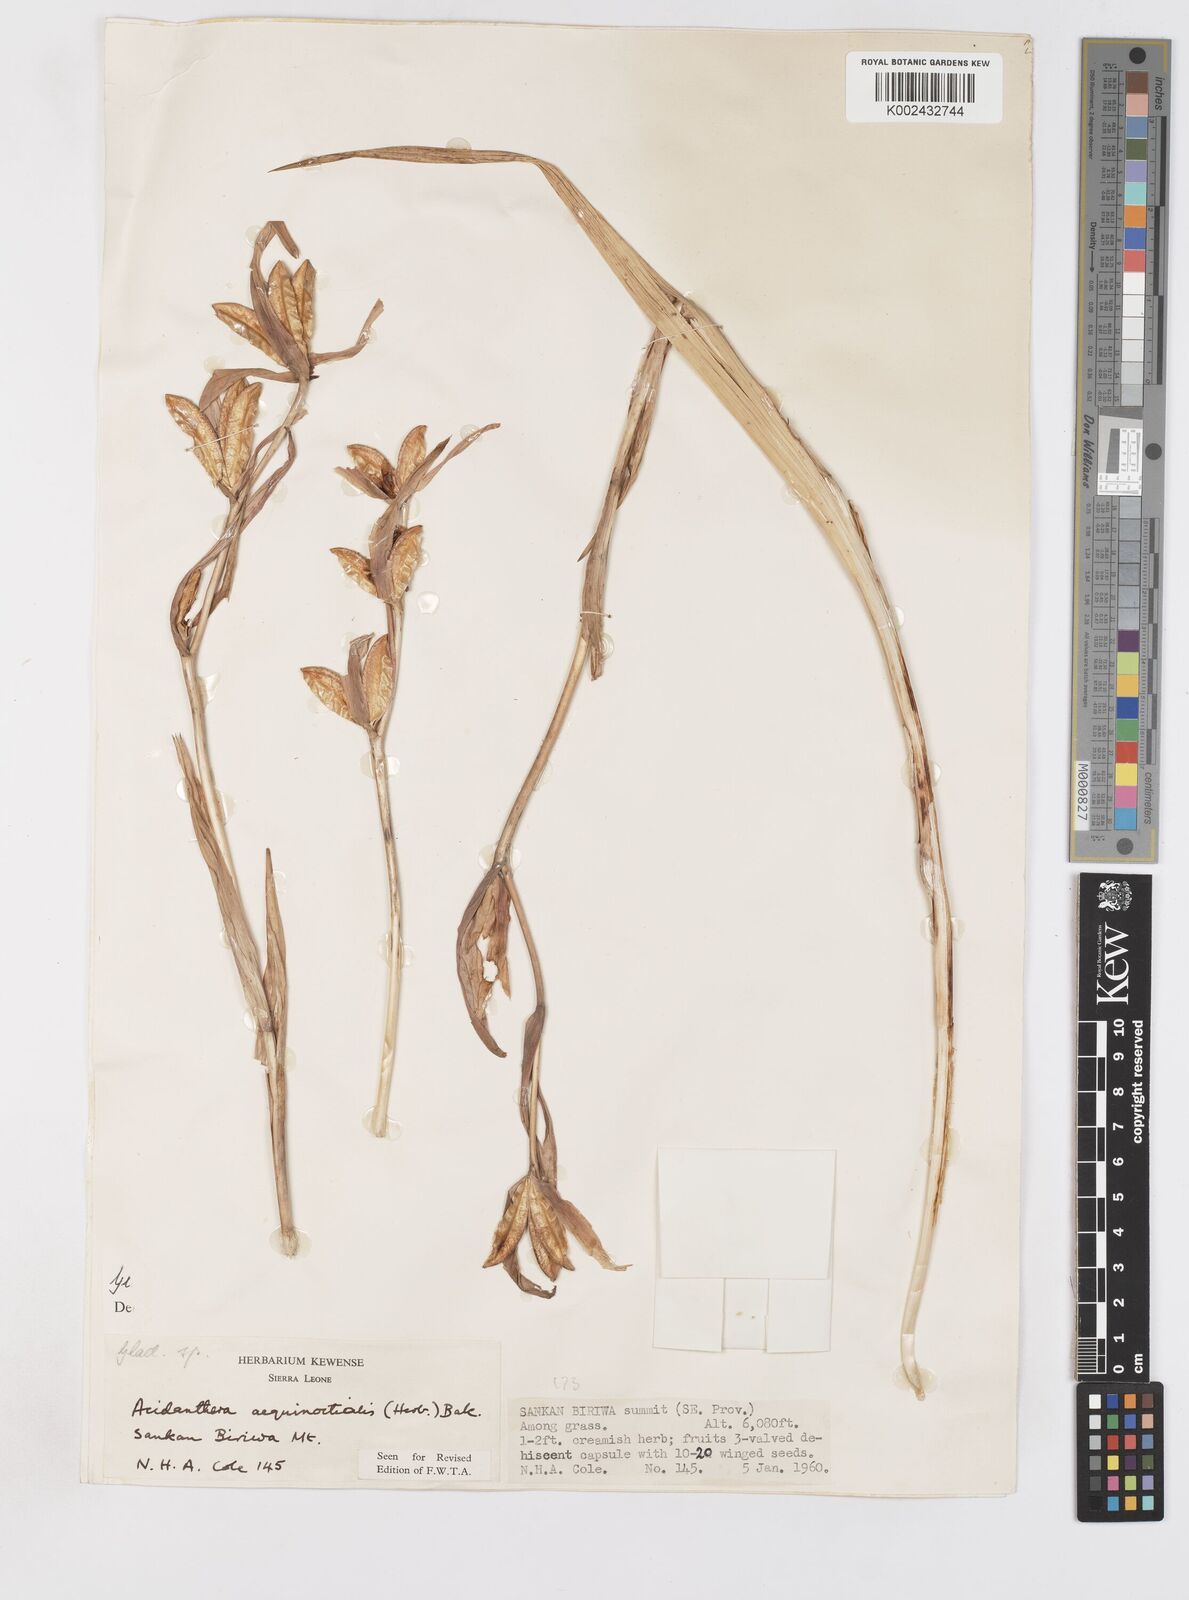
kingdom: Plantae
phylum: Tracheophyta
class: Liliopsida
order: Asparagales
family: Iridaceae
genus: Gladiolus
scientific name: Gladiolus aequinoctialis
